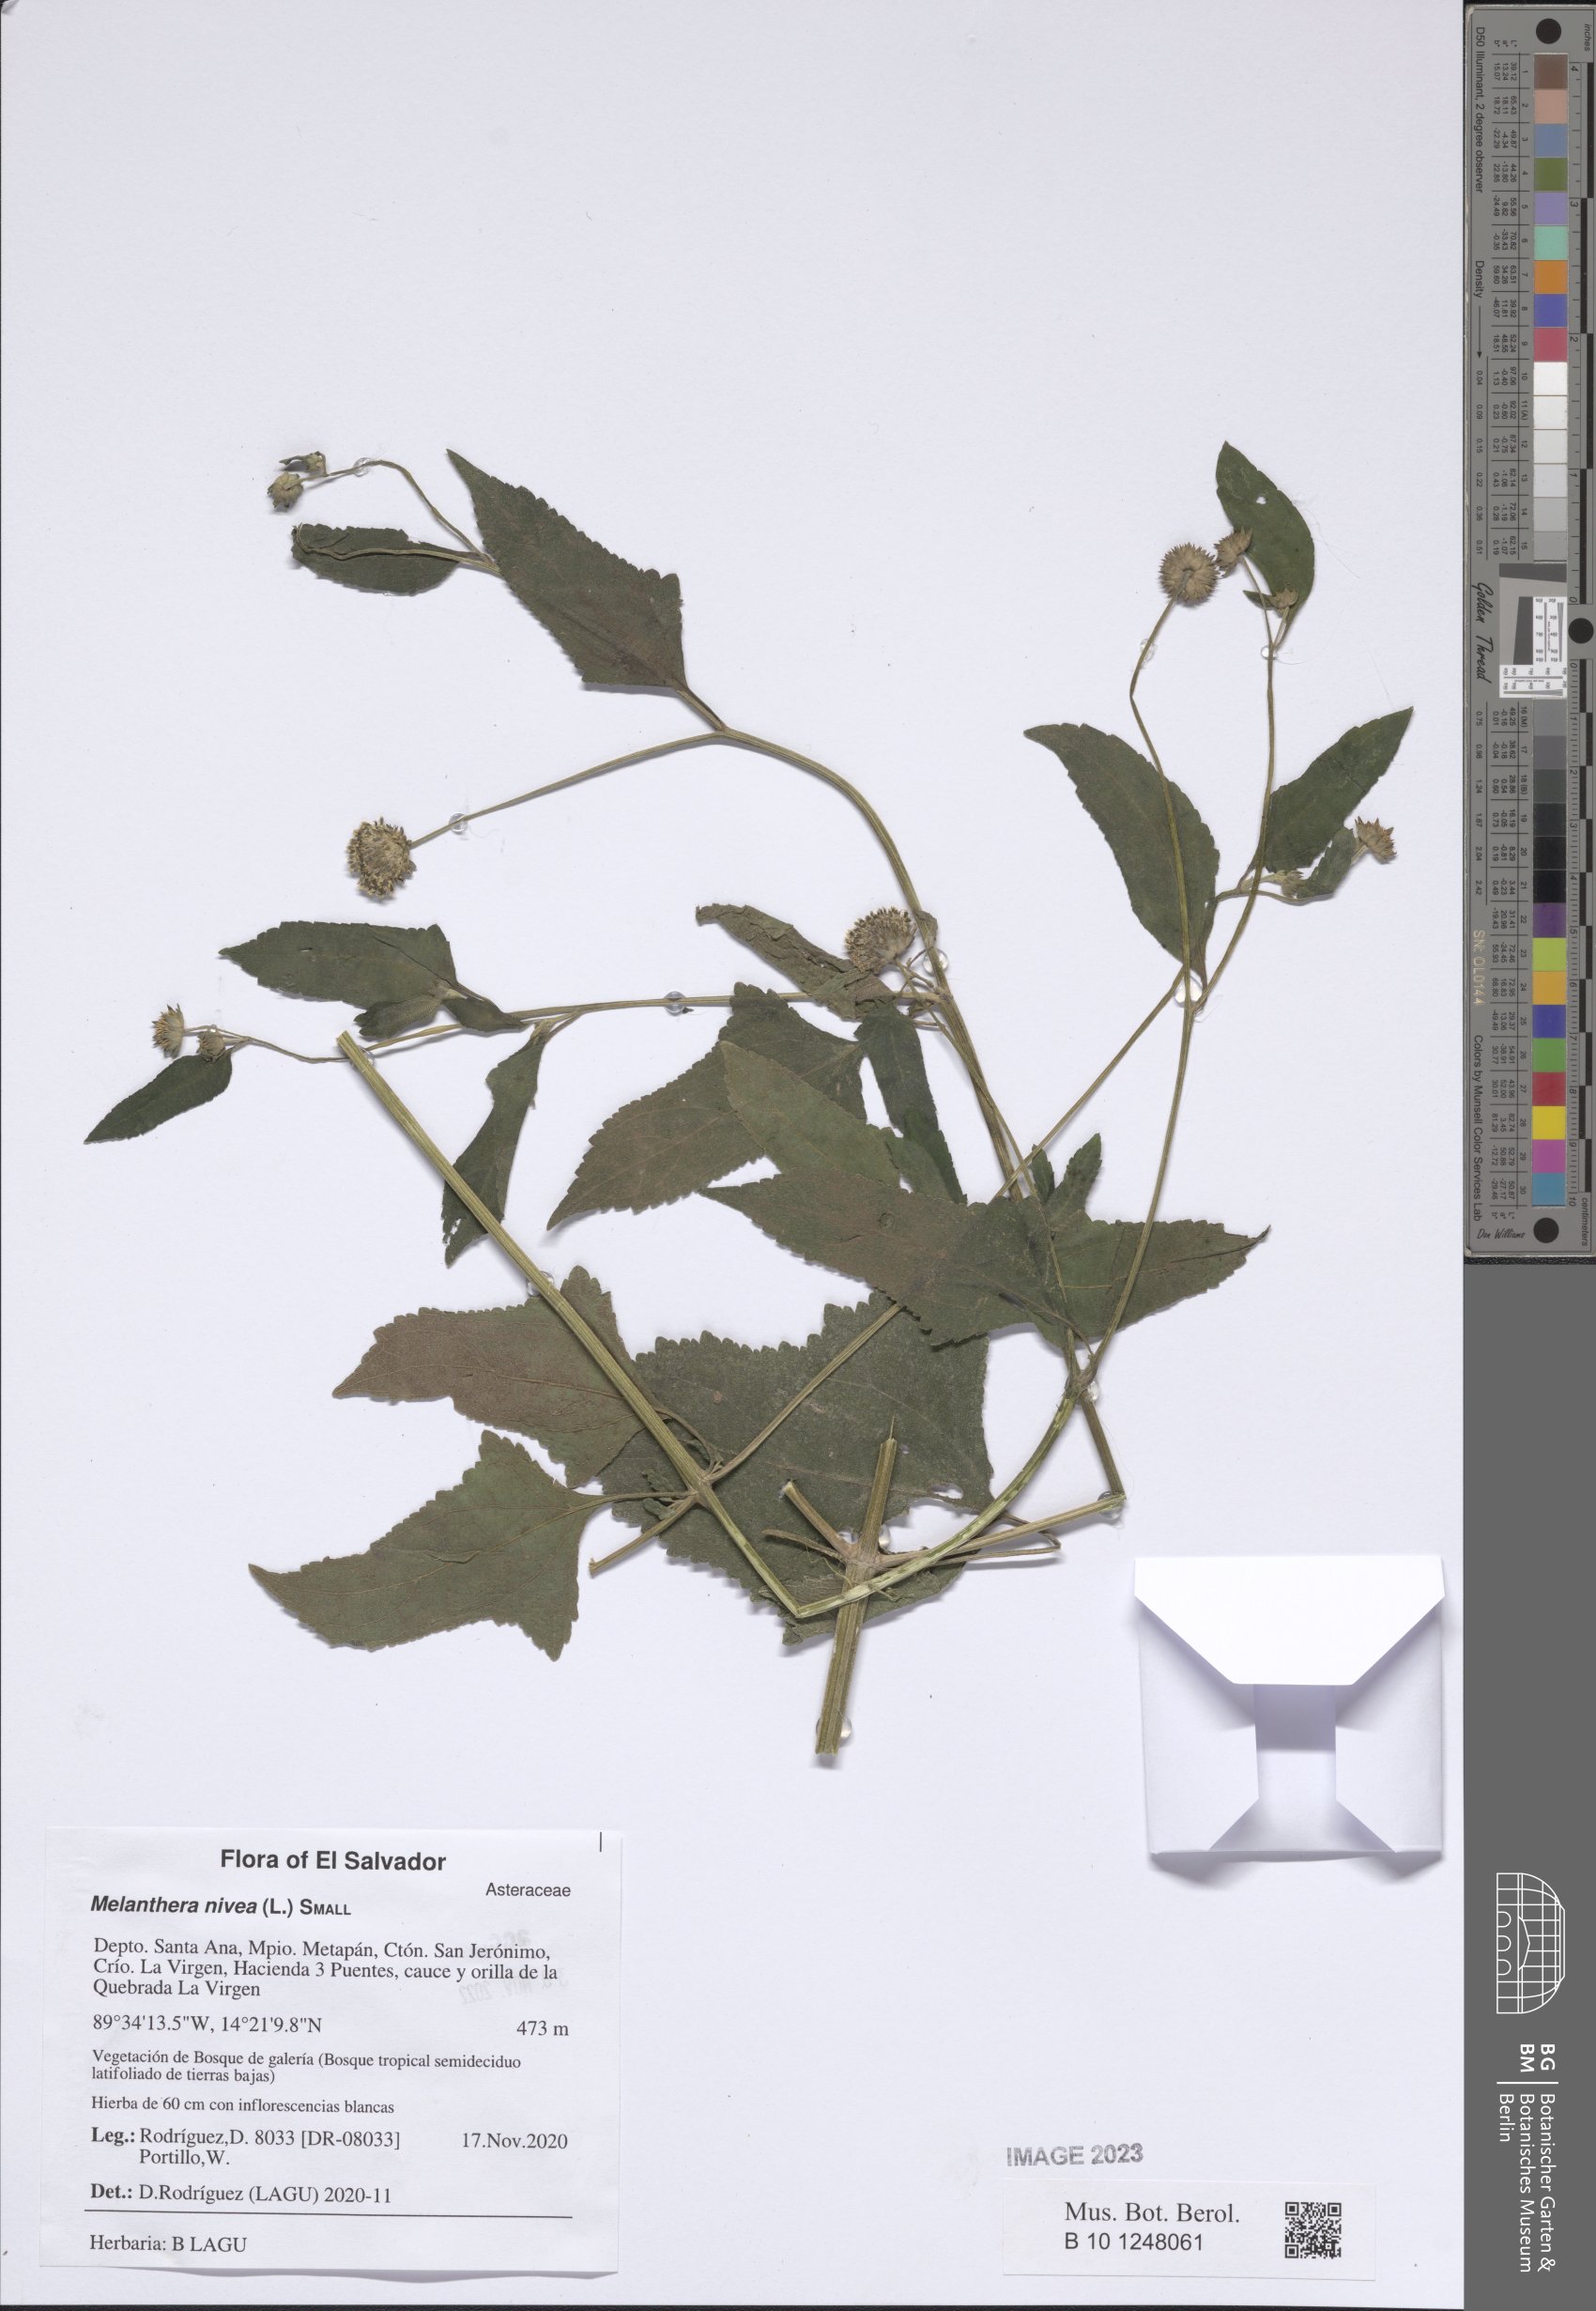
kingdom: Plantae
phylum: Tracheophyta
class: Magnoliopsida
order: Asterales
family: Asteraceae
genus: Melanthera
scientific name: Melanthera nivea
